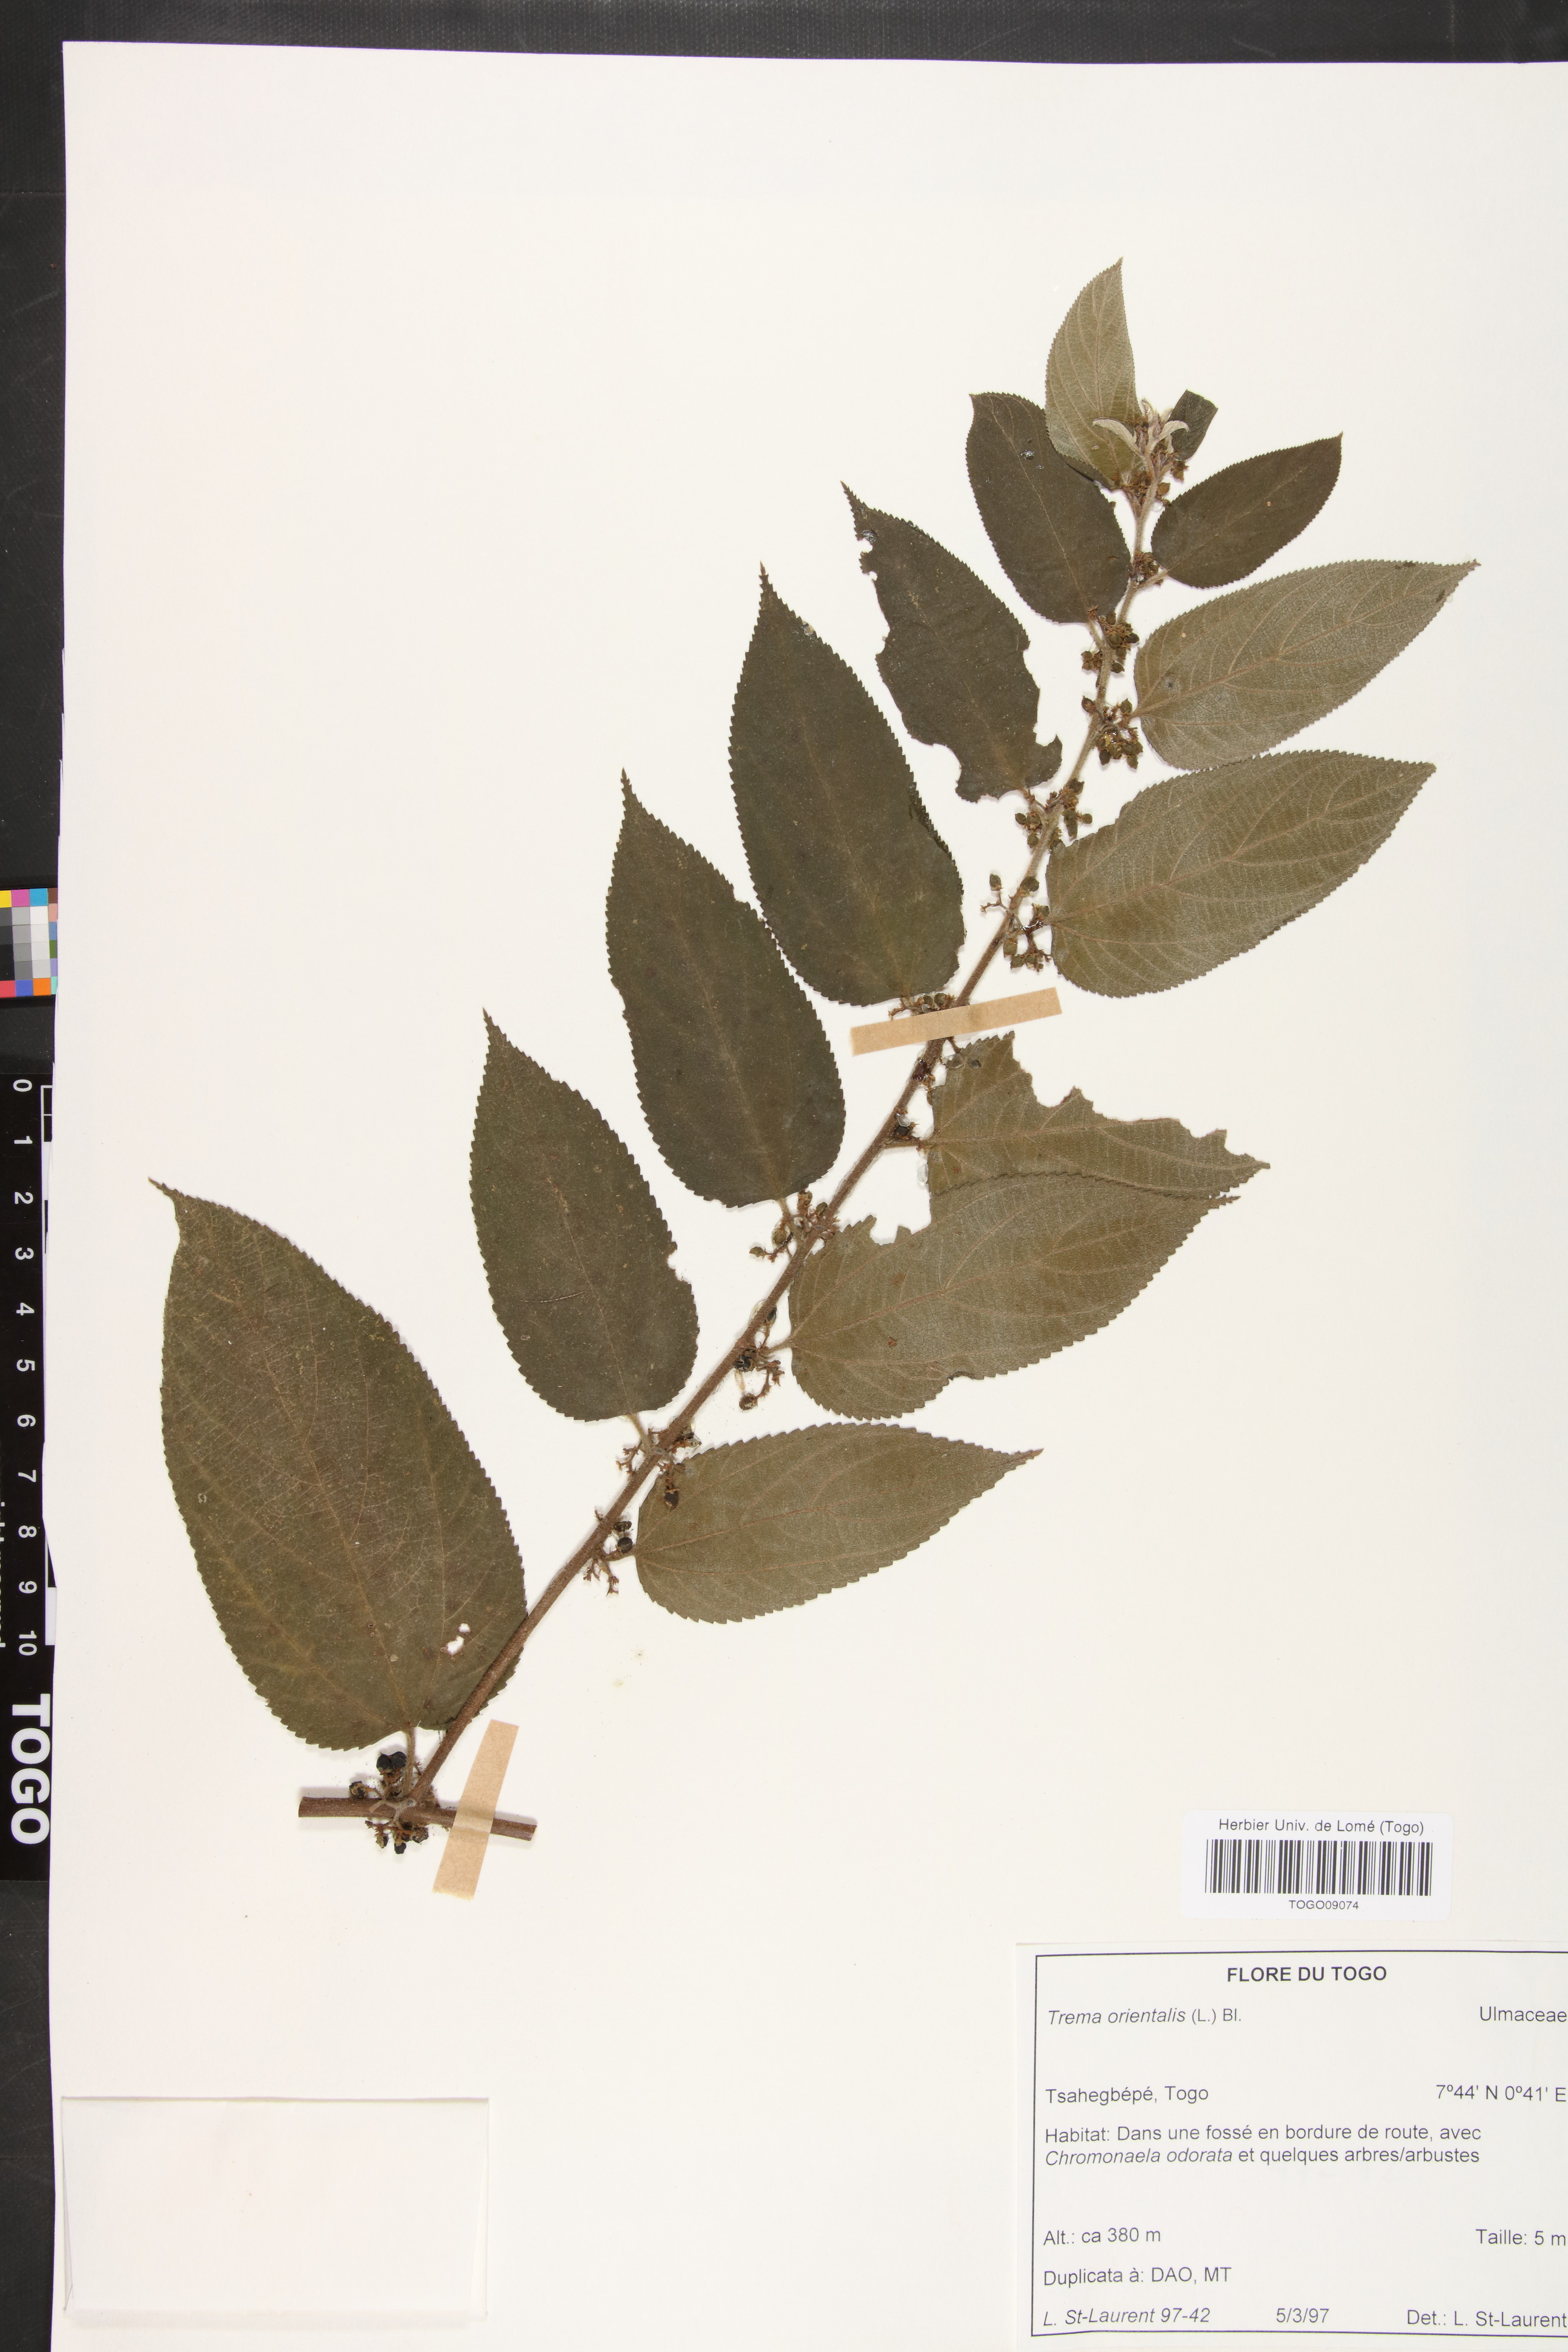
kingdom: Plantae
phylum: Tracheophyta
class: Magnoliopsida
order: Rosales
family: Cannabaceae
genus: Trema
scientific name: Trema orientale
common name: Indian charcoal tree
